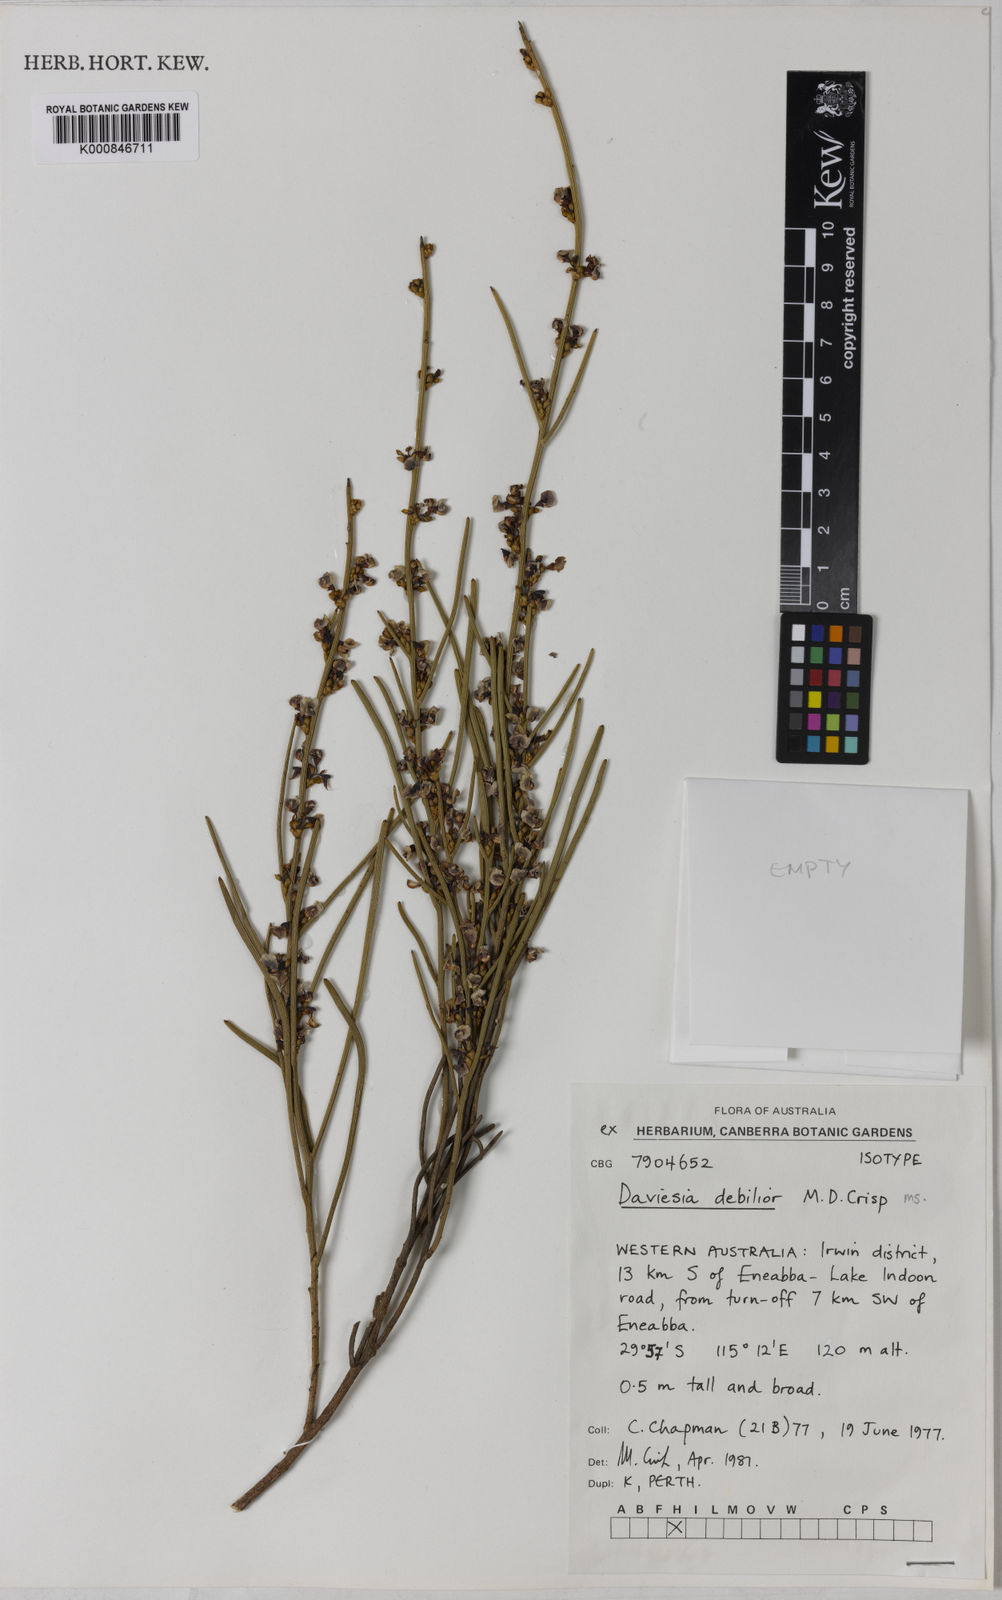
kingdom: Plantae
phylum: Tracheophyta
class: Magnoliopsida
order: Fabales
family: Fabaceae
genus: Daviesia
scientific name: Daviesia debilior
